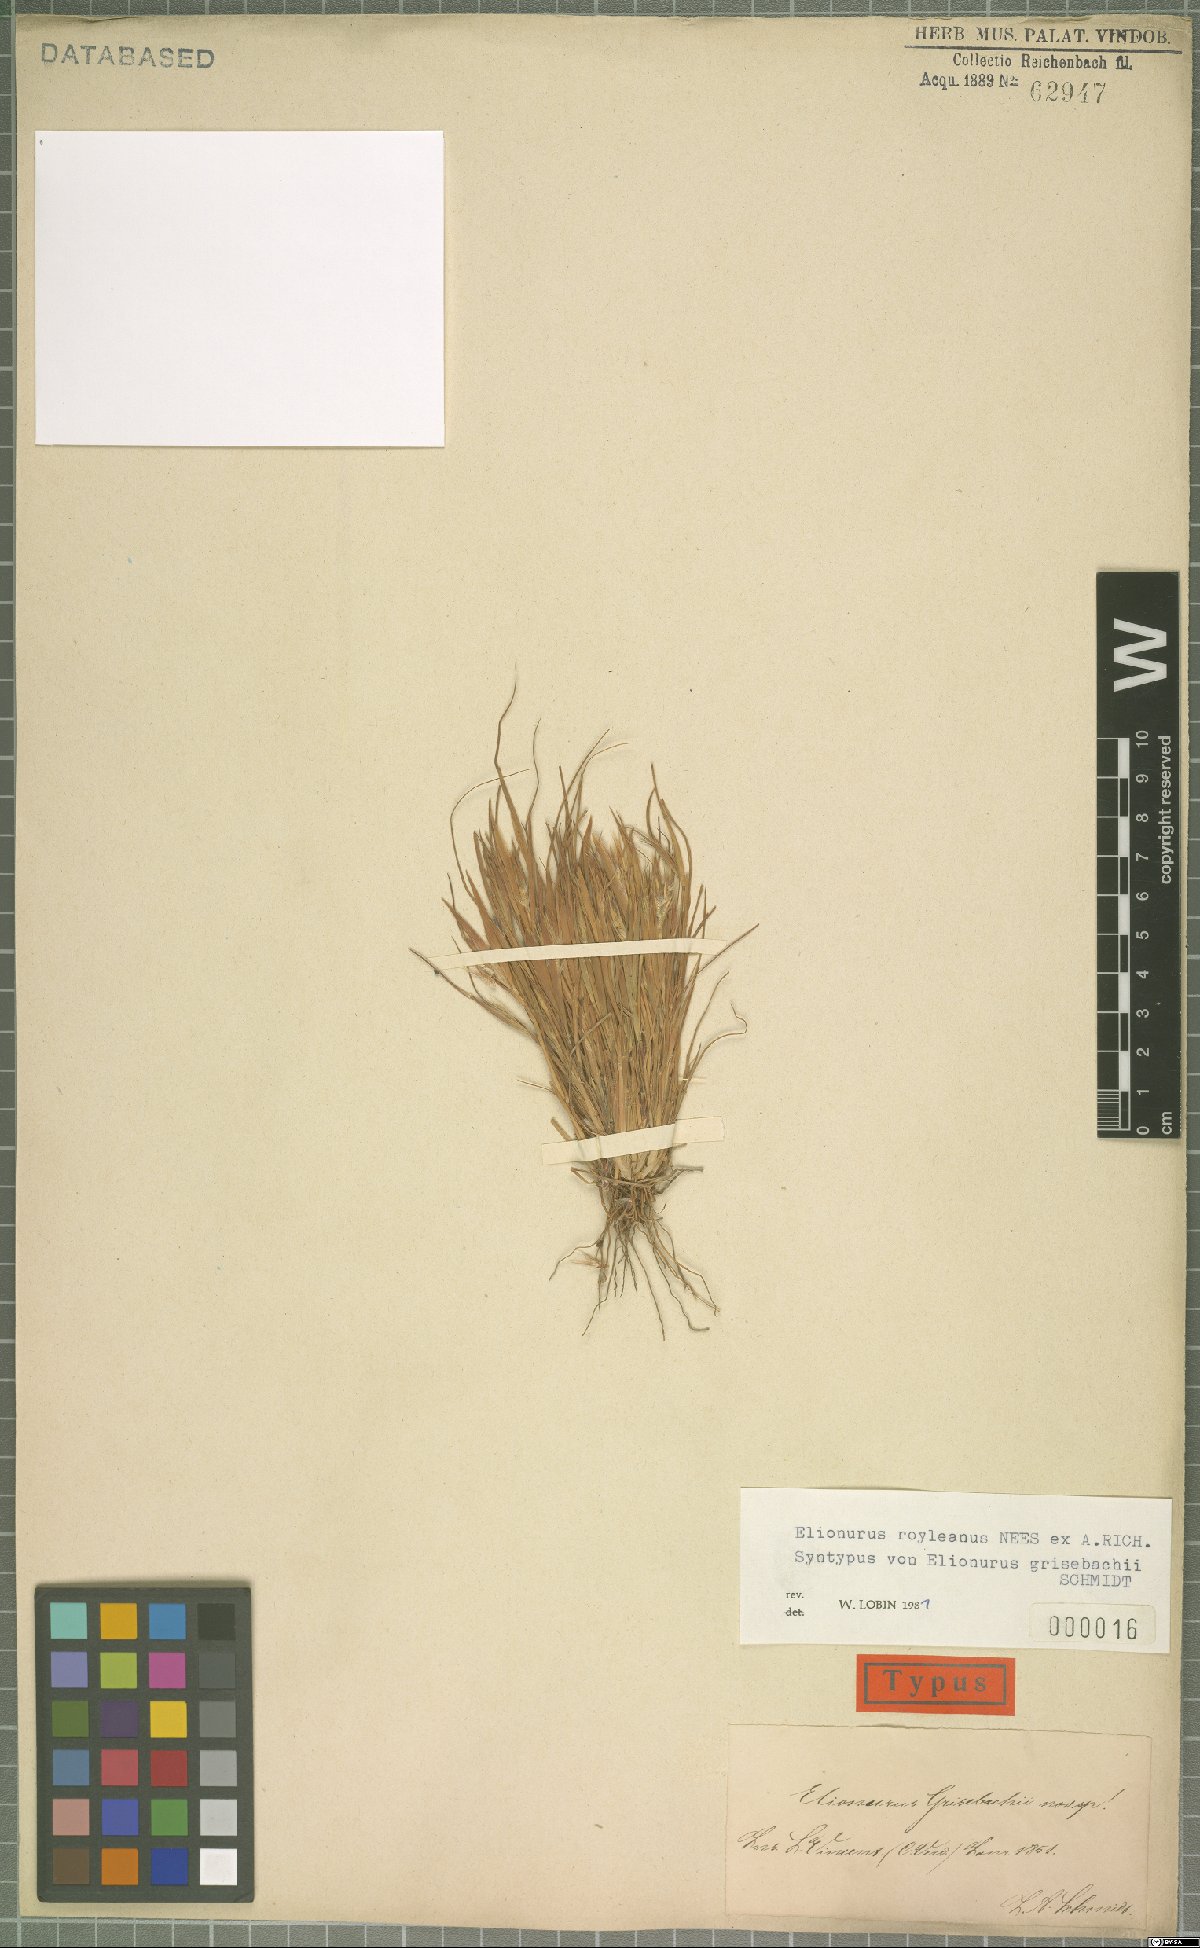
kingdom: Plantae
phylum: Tracheophyta
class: Liliopsida
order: Poales
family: Poaceae
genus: Elionurus
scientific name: Elionurus royleanus
